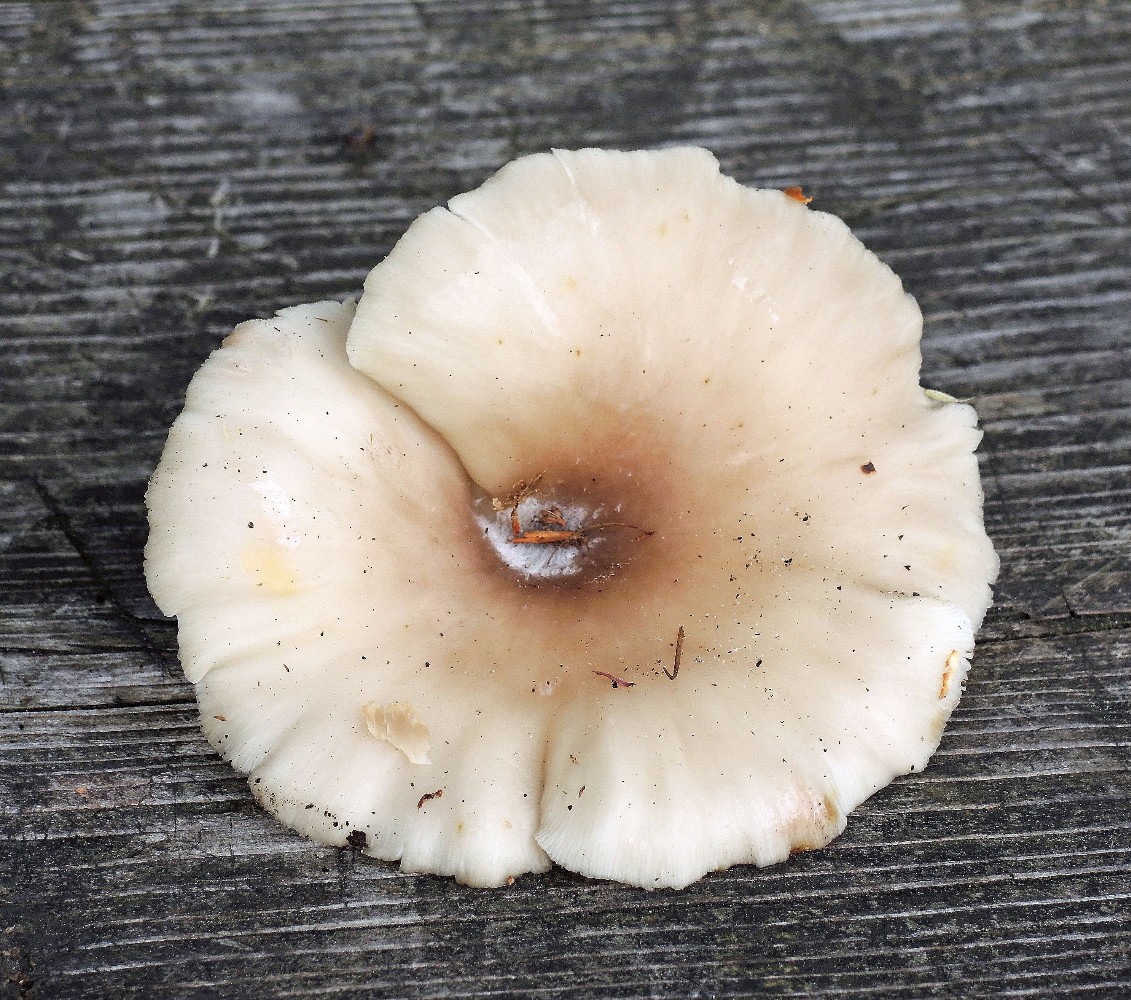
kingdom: Fungi
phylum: Basidiomycota
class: Agaricomycetes
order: Agaricales
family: Pleurotaceae
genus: Pleurotus
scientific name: Pleurotus pulmonarius
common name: sommer-østershat
